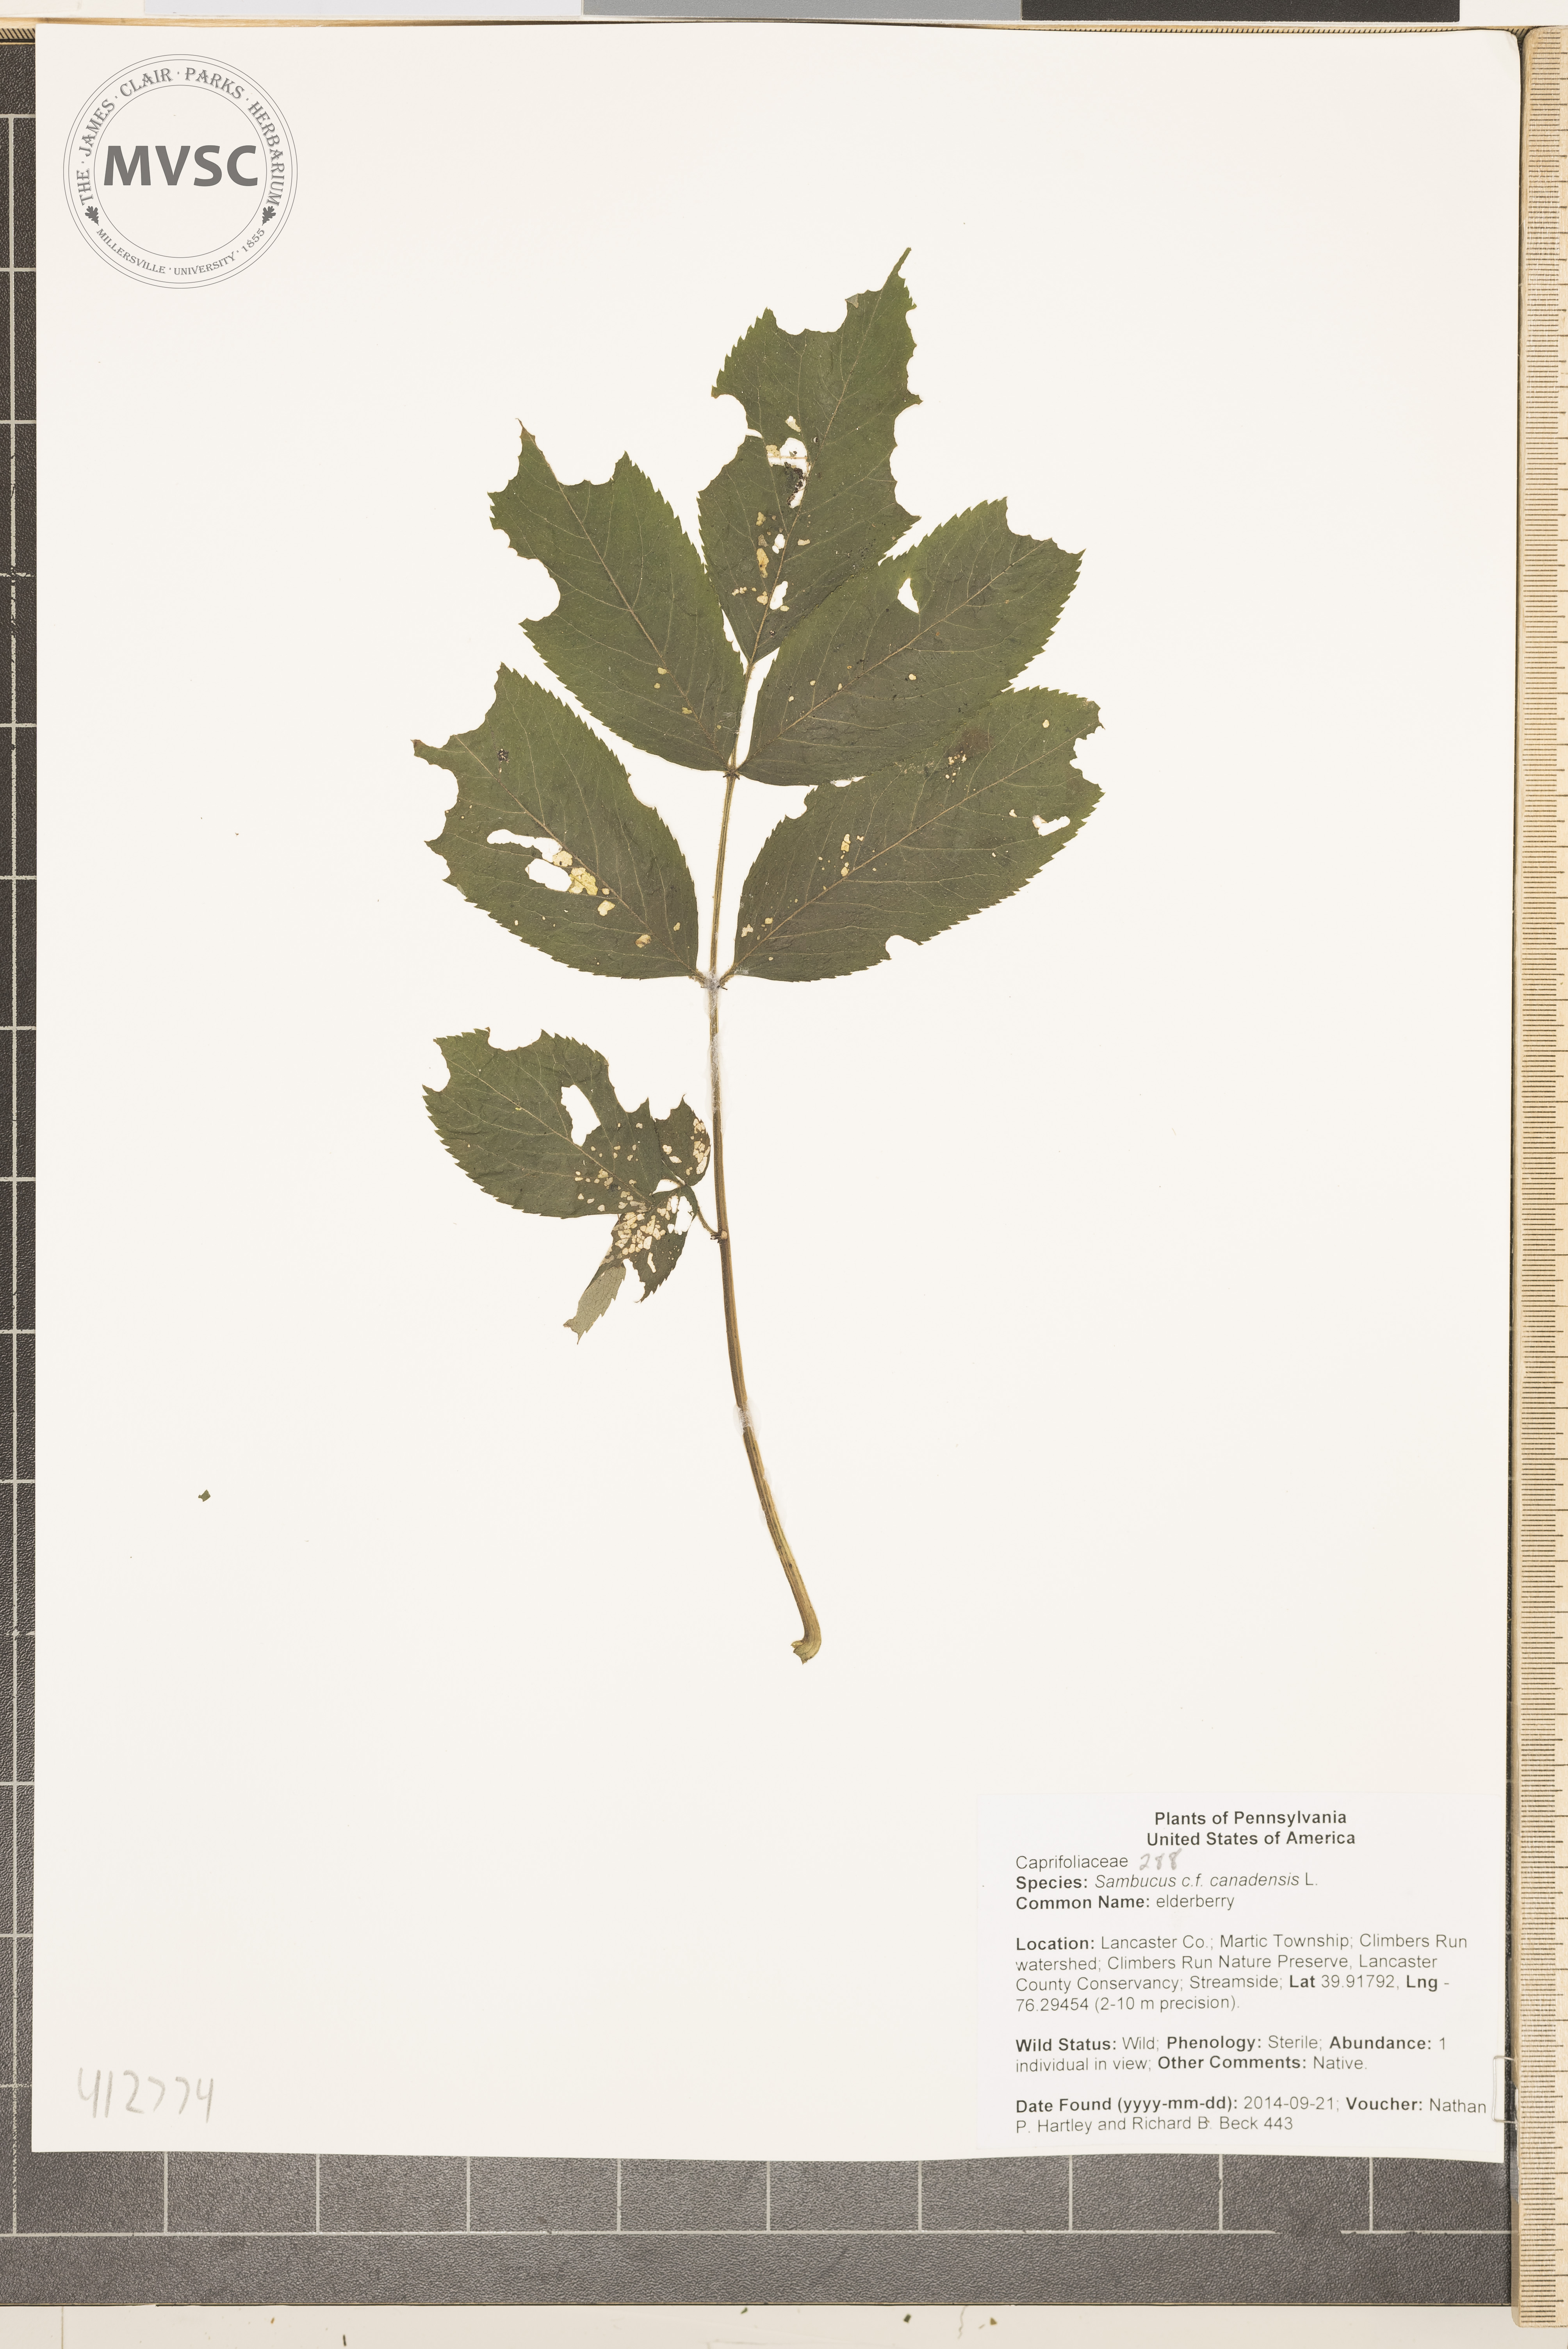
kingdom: Plantae
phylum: Tracheophyta
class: Magnoliopsida
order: Dipsacales
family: Viburnaceae
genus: Sambucus
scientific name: Sambucus canadensis
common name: American black elderberry
